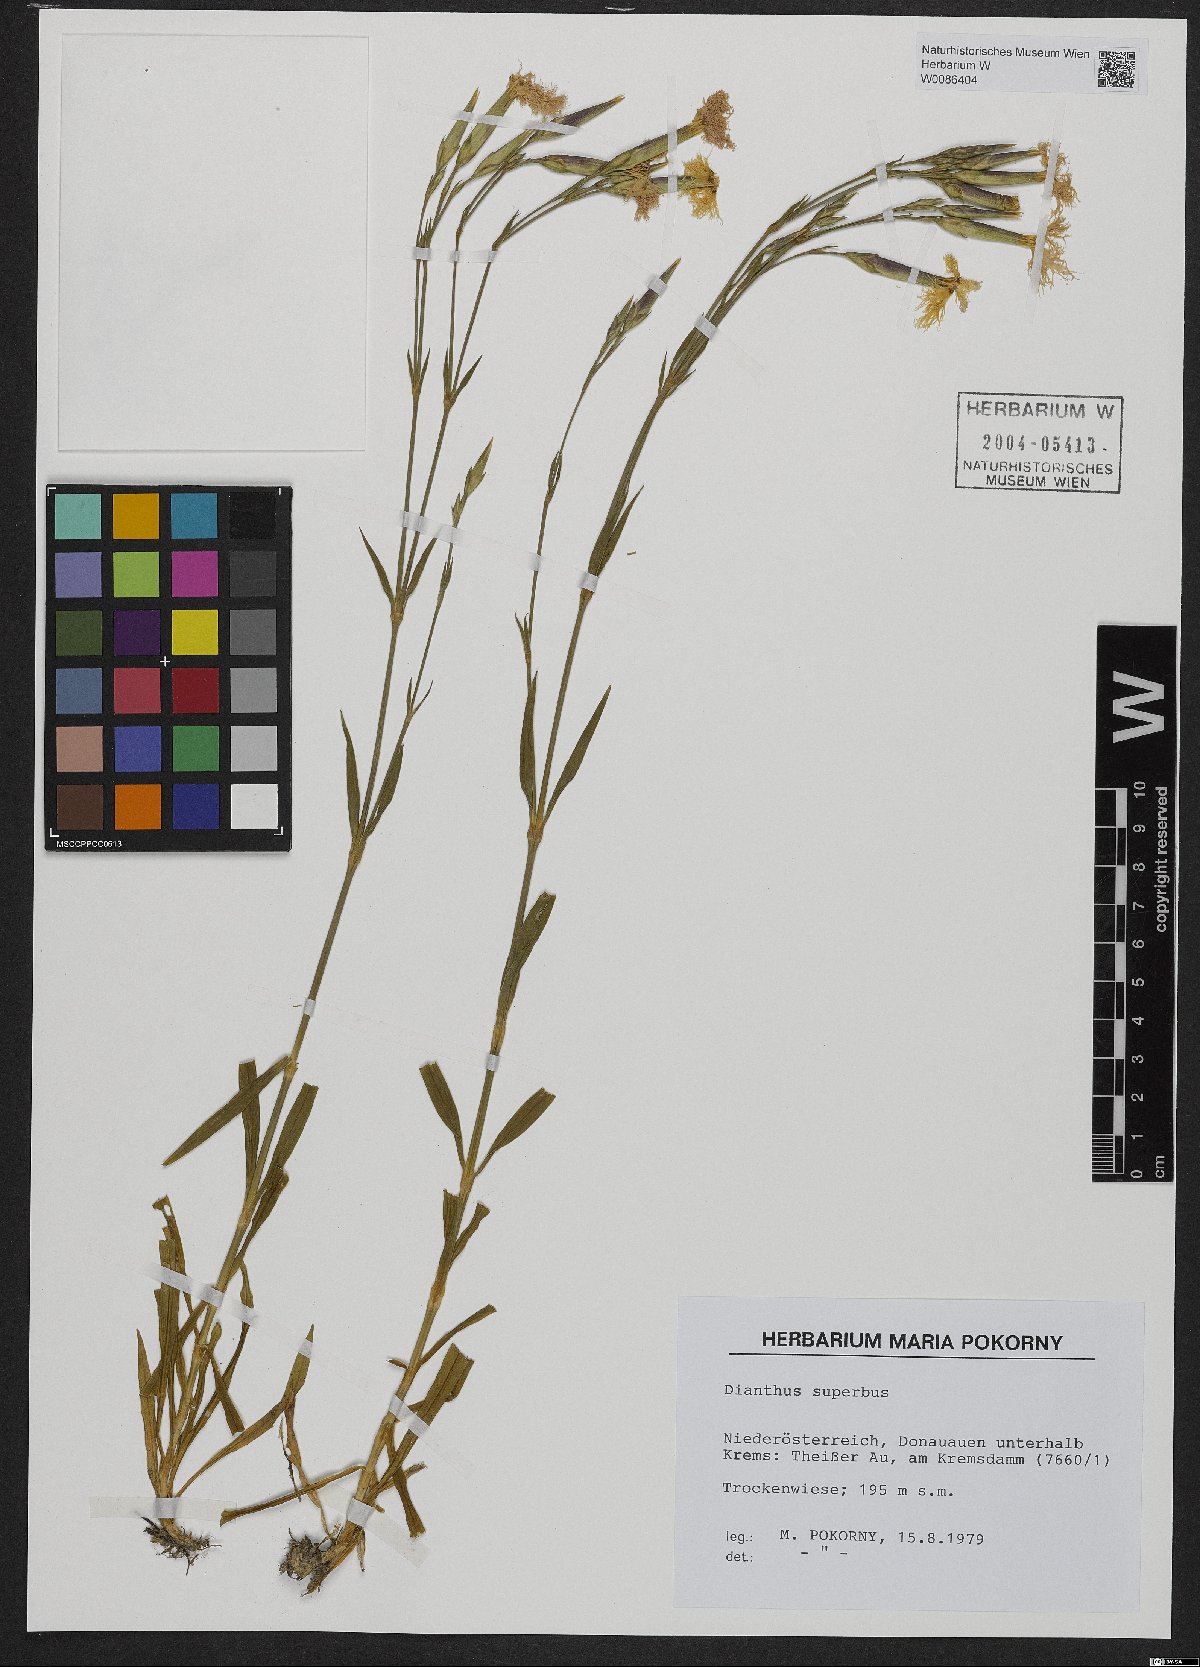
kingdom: Plantae
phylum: Tracheophyta
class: Magnoliopsida
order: Caryophyllales
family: Caryophyllaceae
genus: Dianthus
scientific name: Dianthus superbus
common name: Fringed pink
